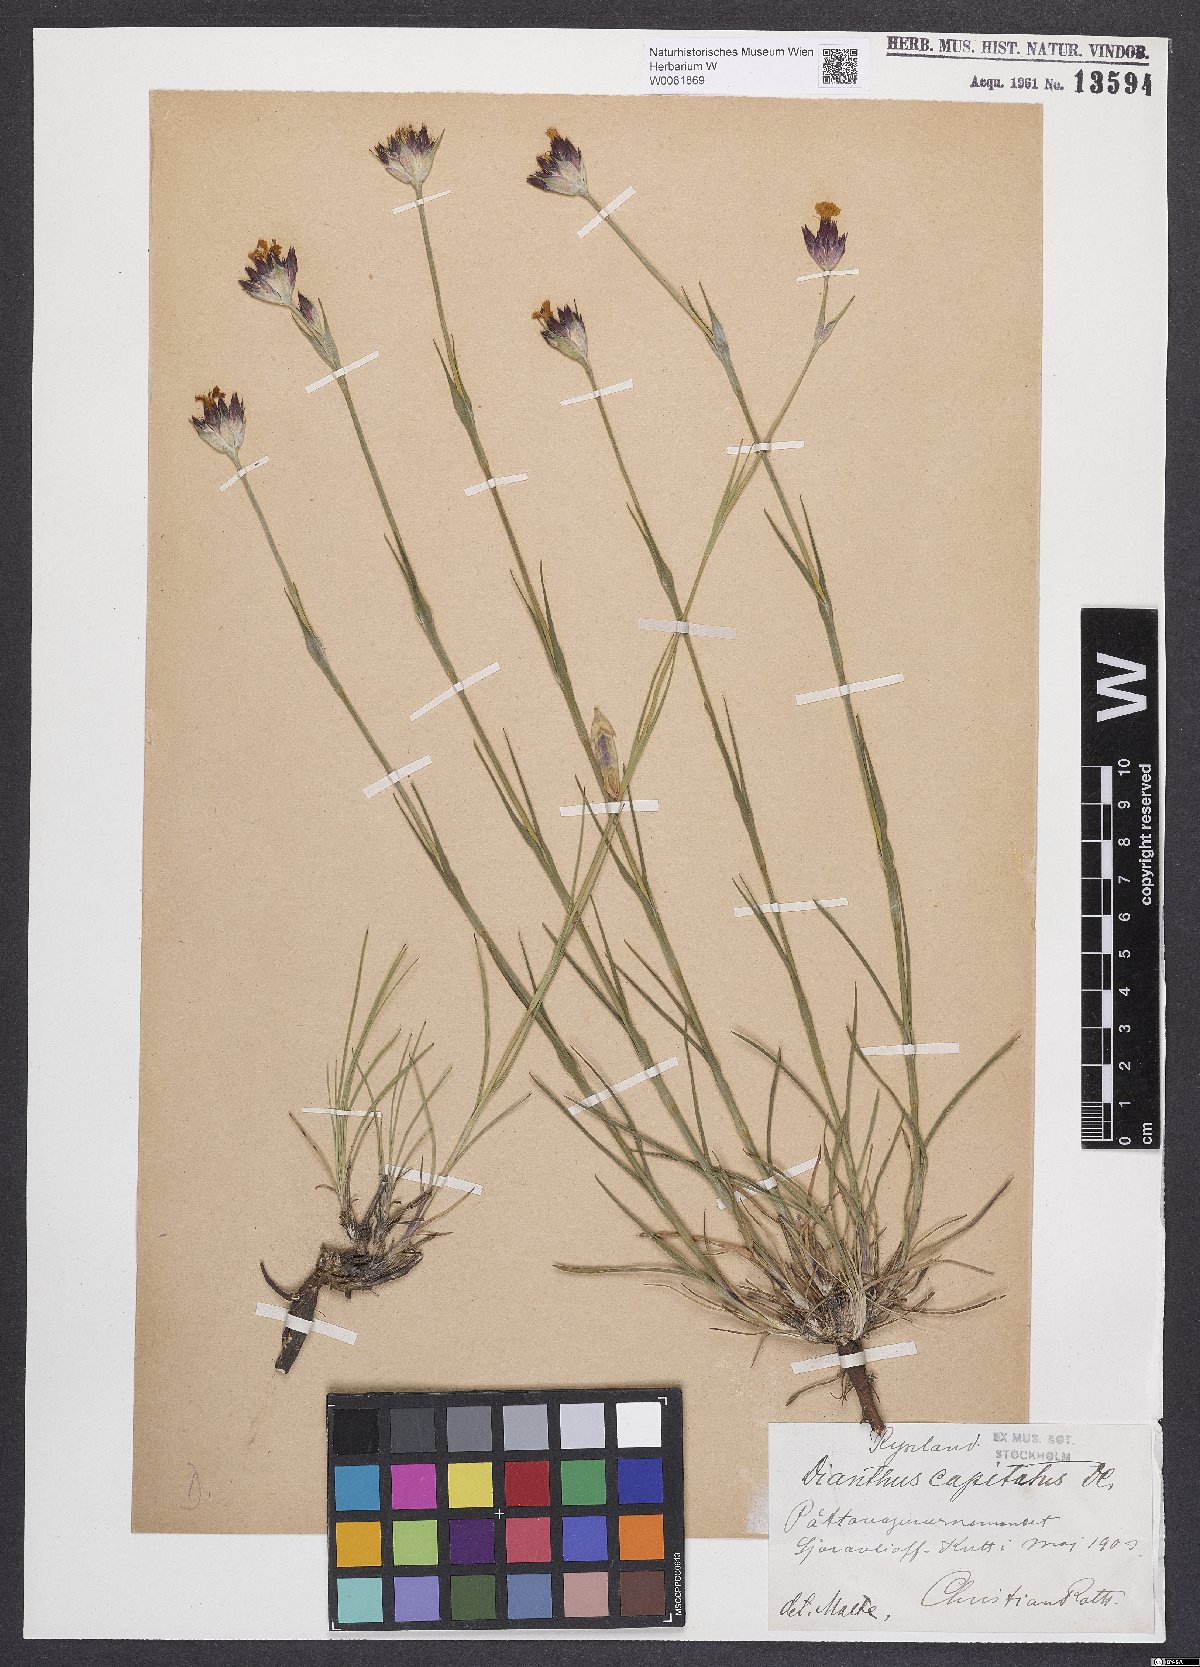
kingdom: Plantae
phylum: Tracheophyta
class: Magnoliopsida
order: Caryophyllales
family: Caryophyllaceae
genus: Dianthus
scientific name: Dianthus capitatus
